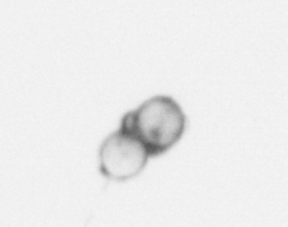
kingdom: Chromista
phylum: Ochrophyta
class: Bacillariophyceae
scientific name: Bacillariophyceae
